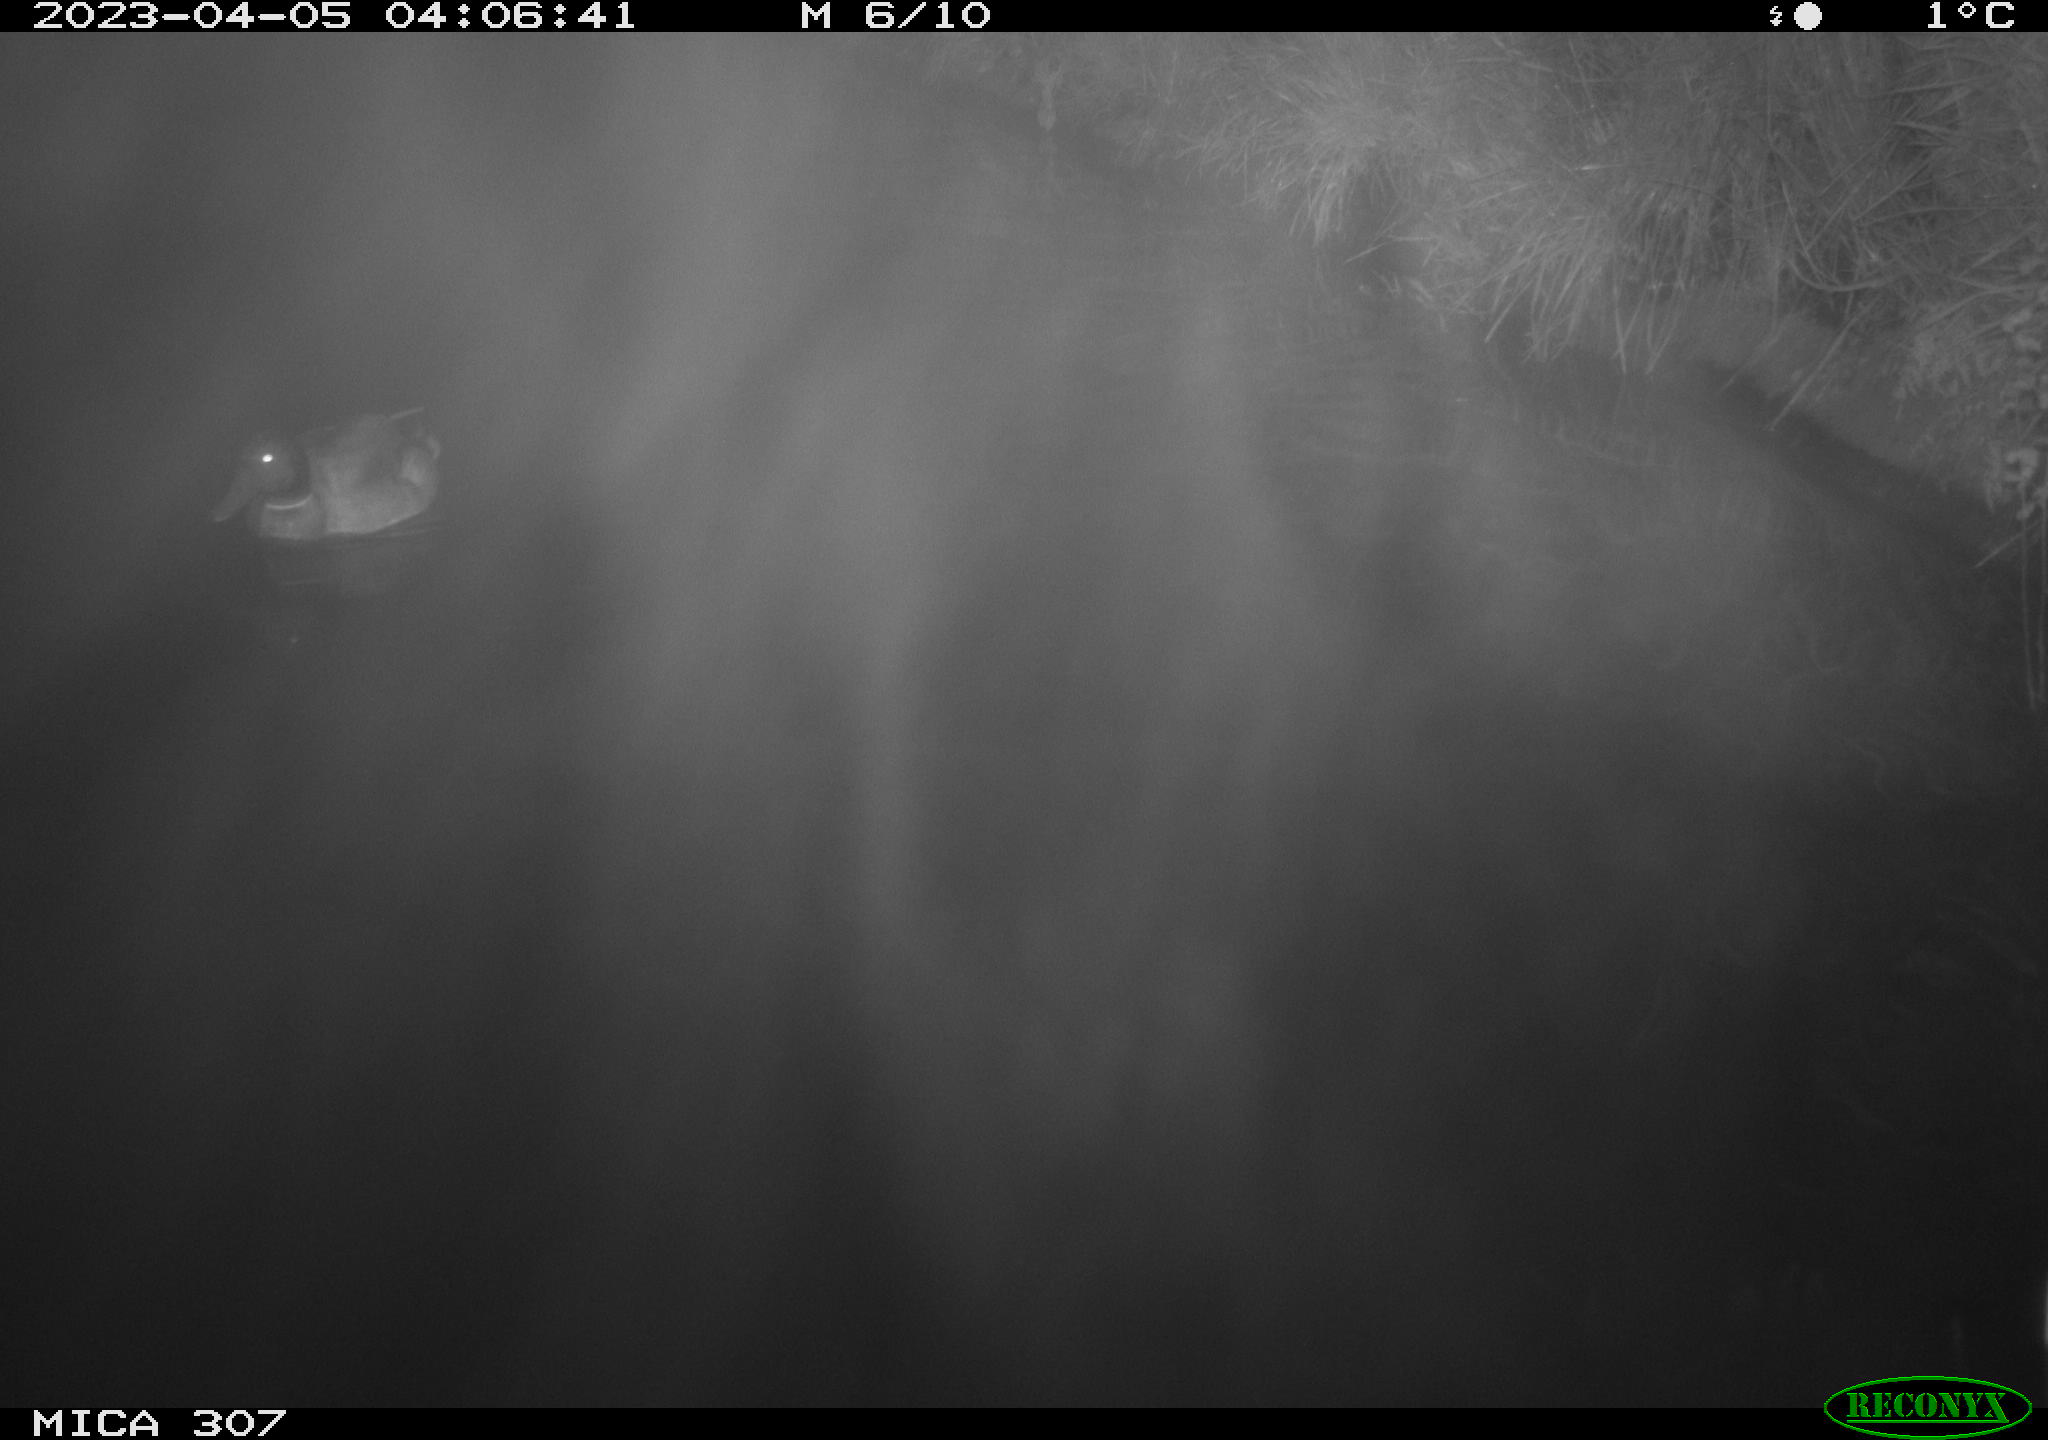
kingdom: Animalia
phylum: Chordata
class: Aves
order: Anseriformes
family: Anatidae
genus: Anas
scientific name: Anas
